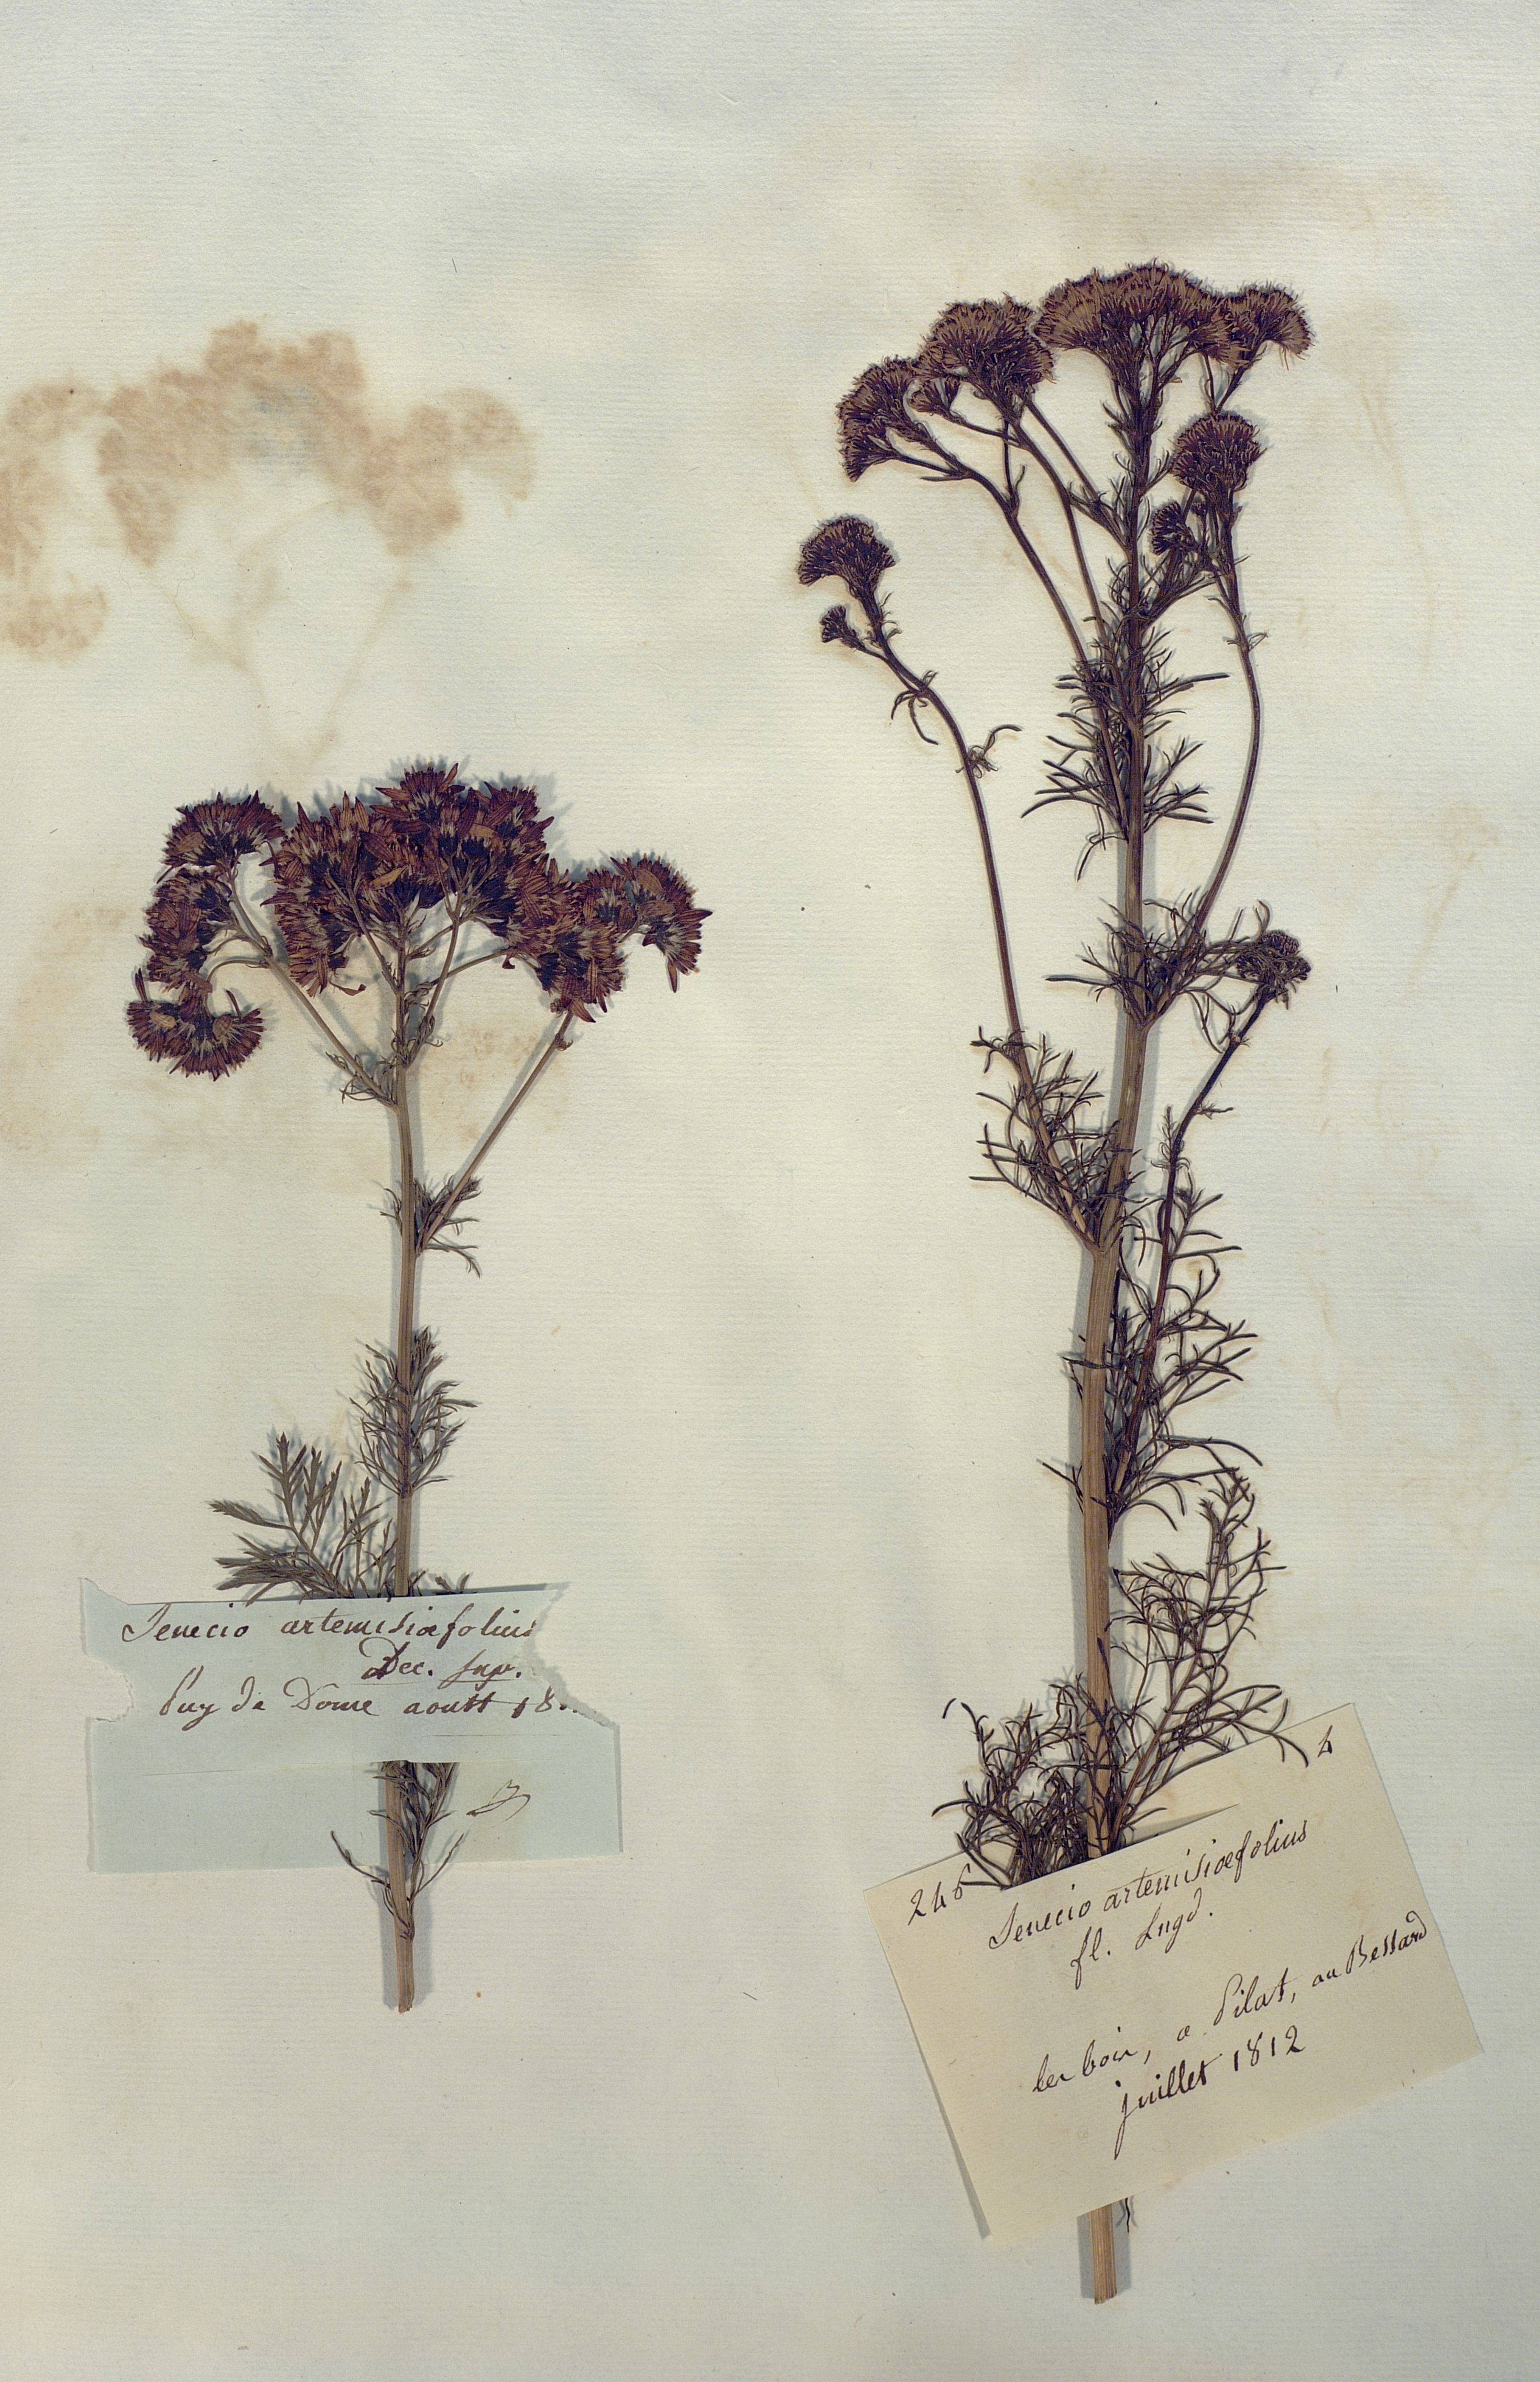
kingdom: Plantae
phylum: Tracheophyta
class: Magnoliopsida
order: Asterales
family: Asteraceae
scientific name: Asteraceae
